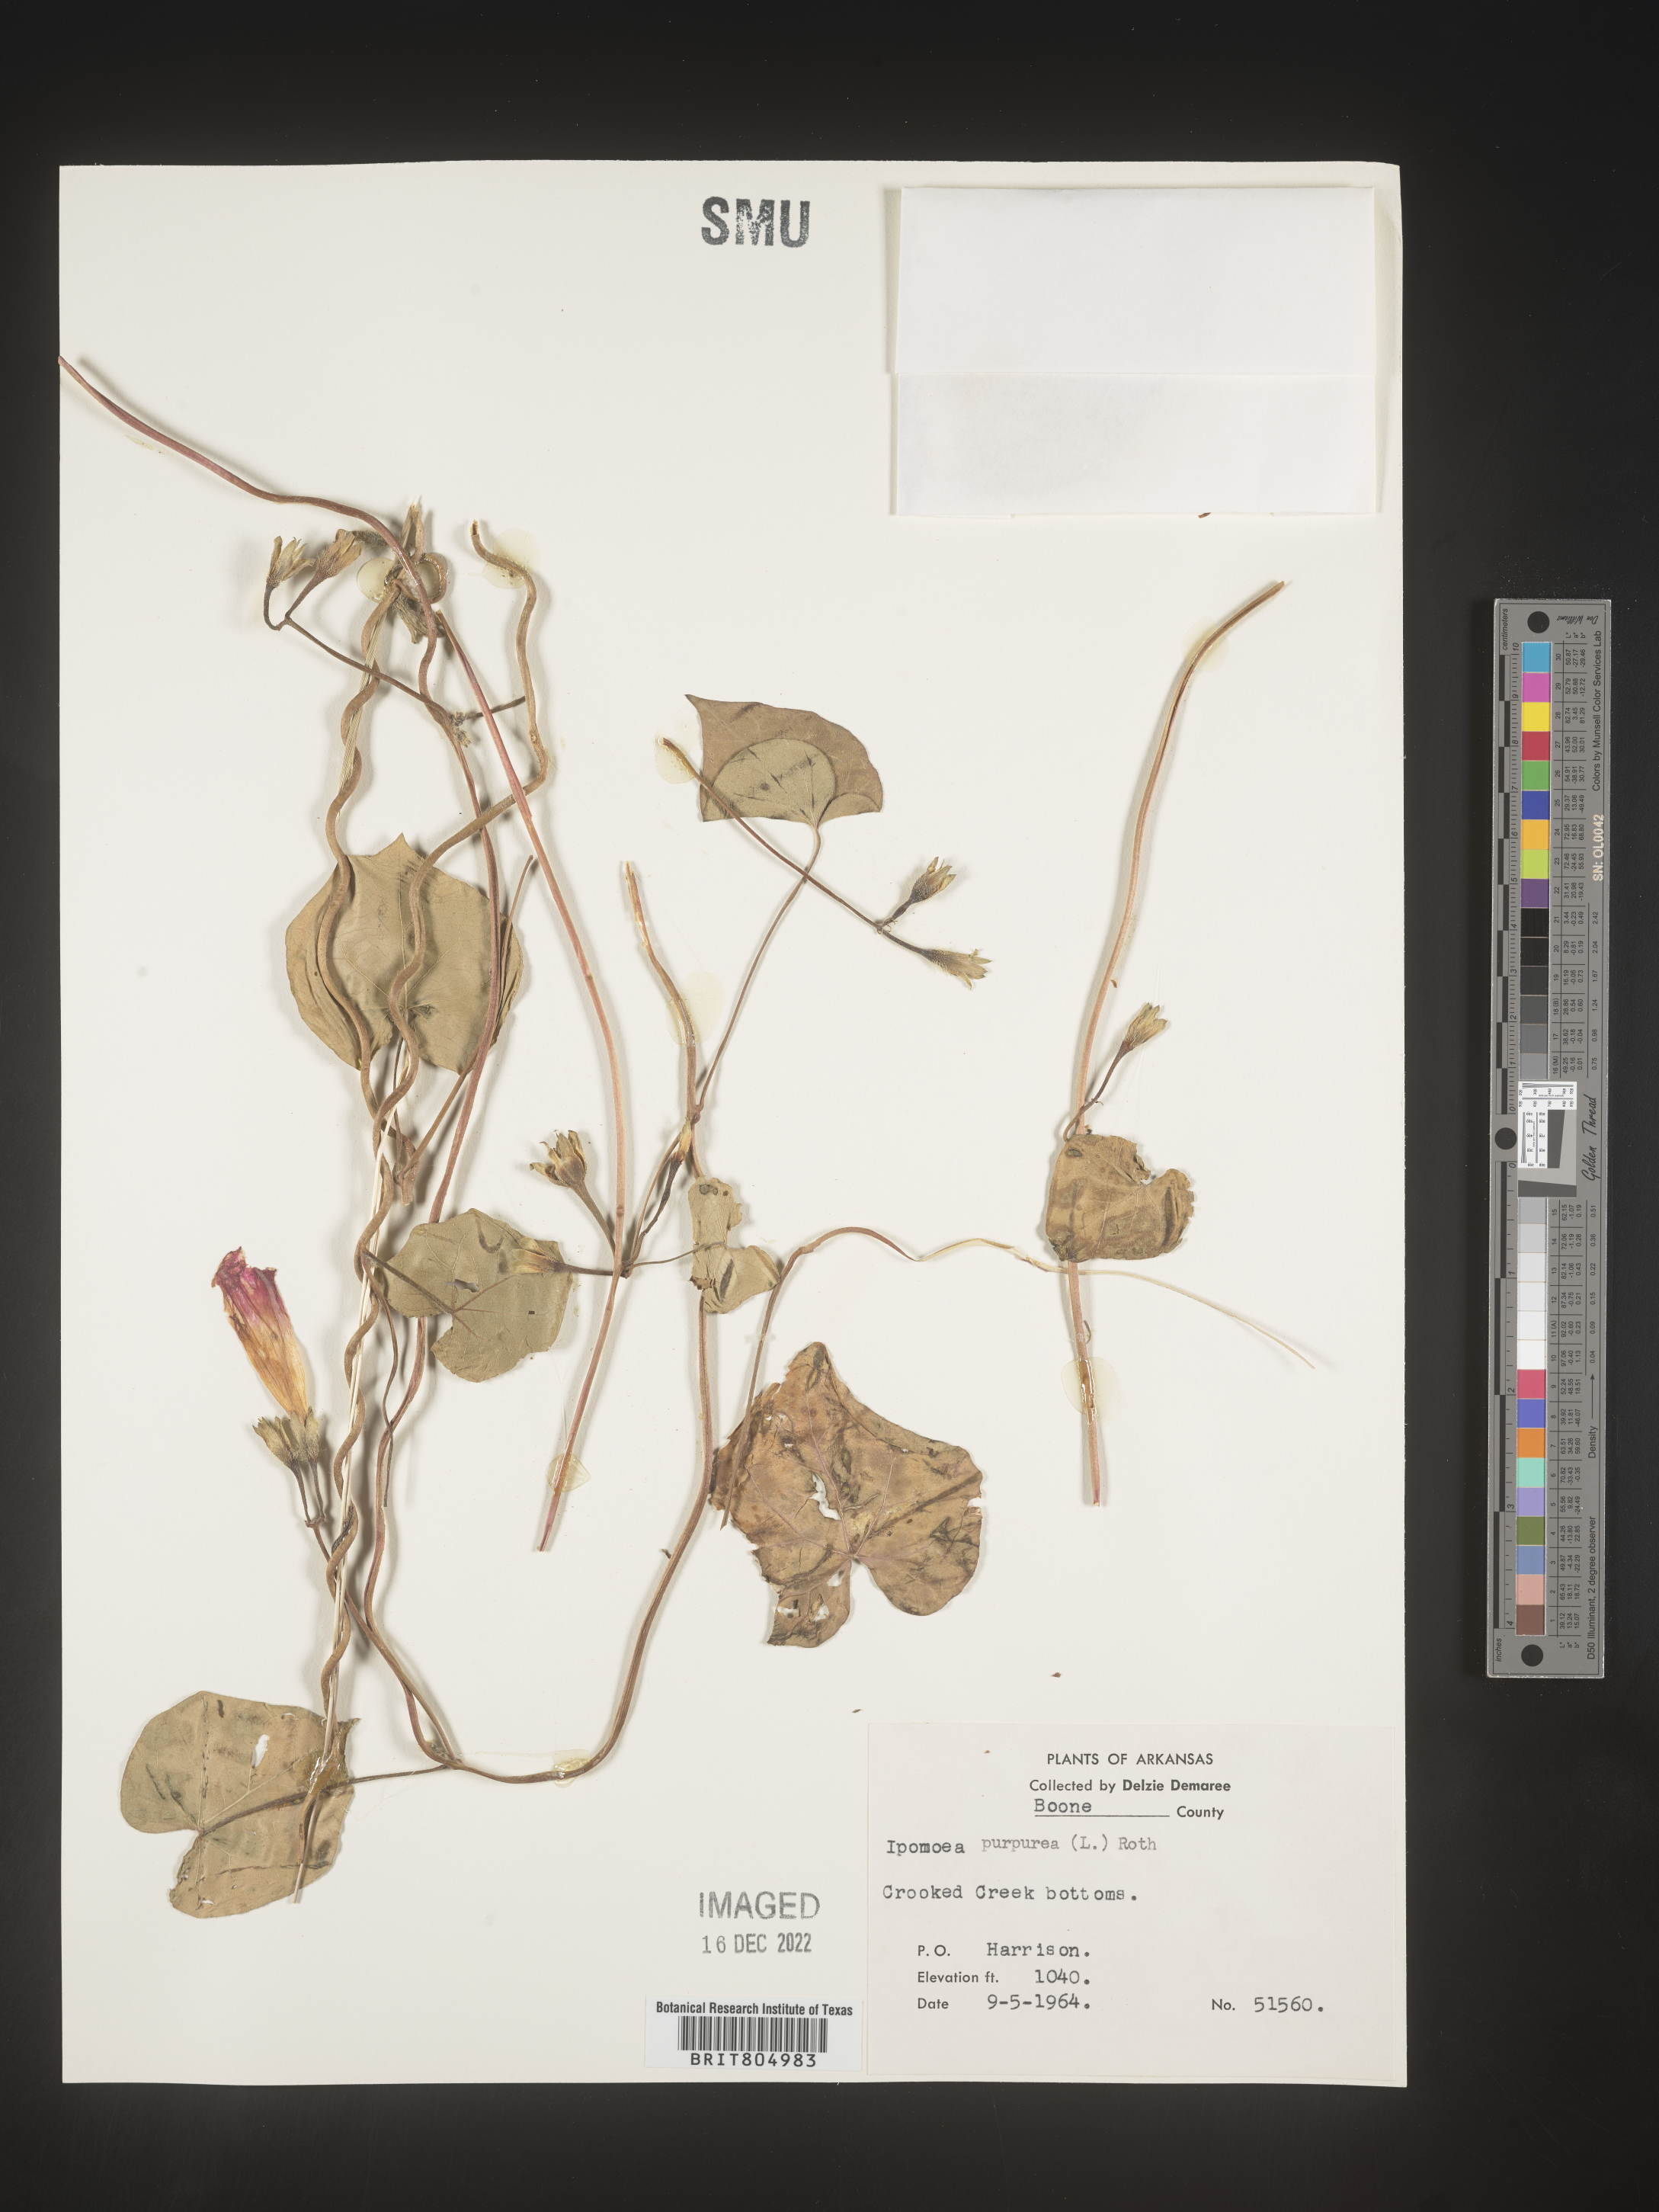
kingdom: Plantae
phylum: Tracheophyta
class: Magnoliopsida
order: Solanales
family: Convolvulaceae
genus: Ipomoea
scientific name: Ipomoea purpurea
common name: Common morning-glory
